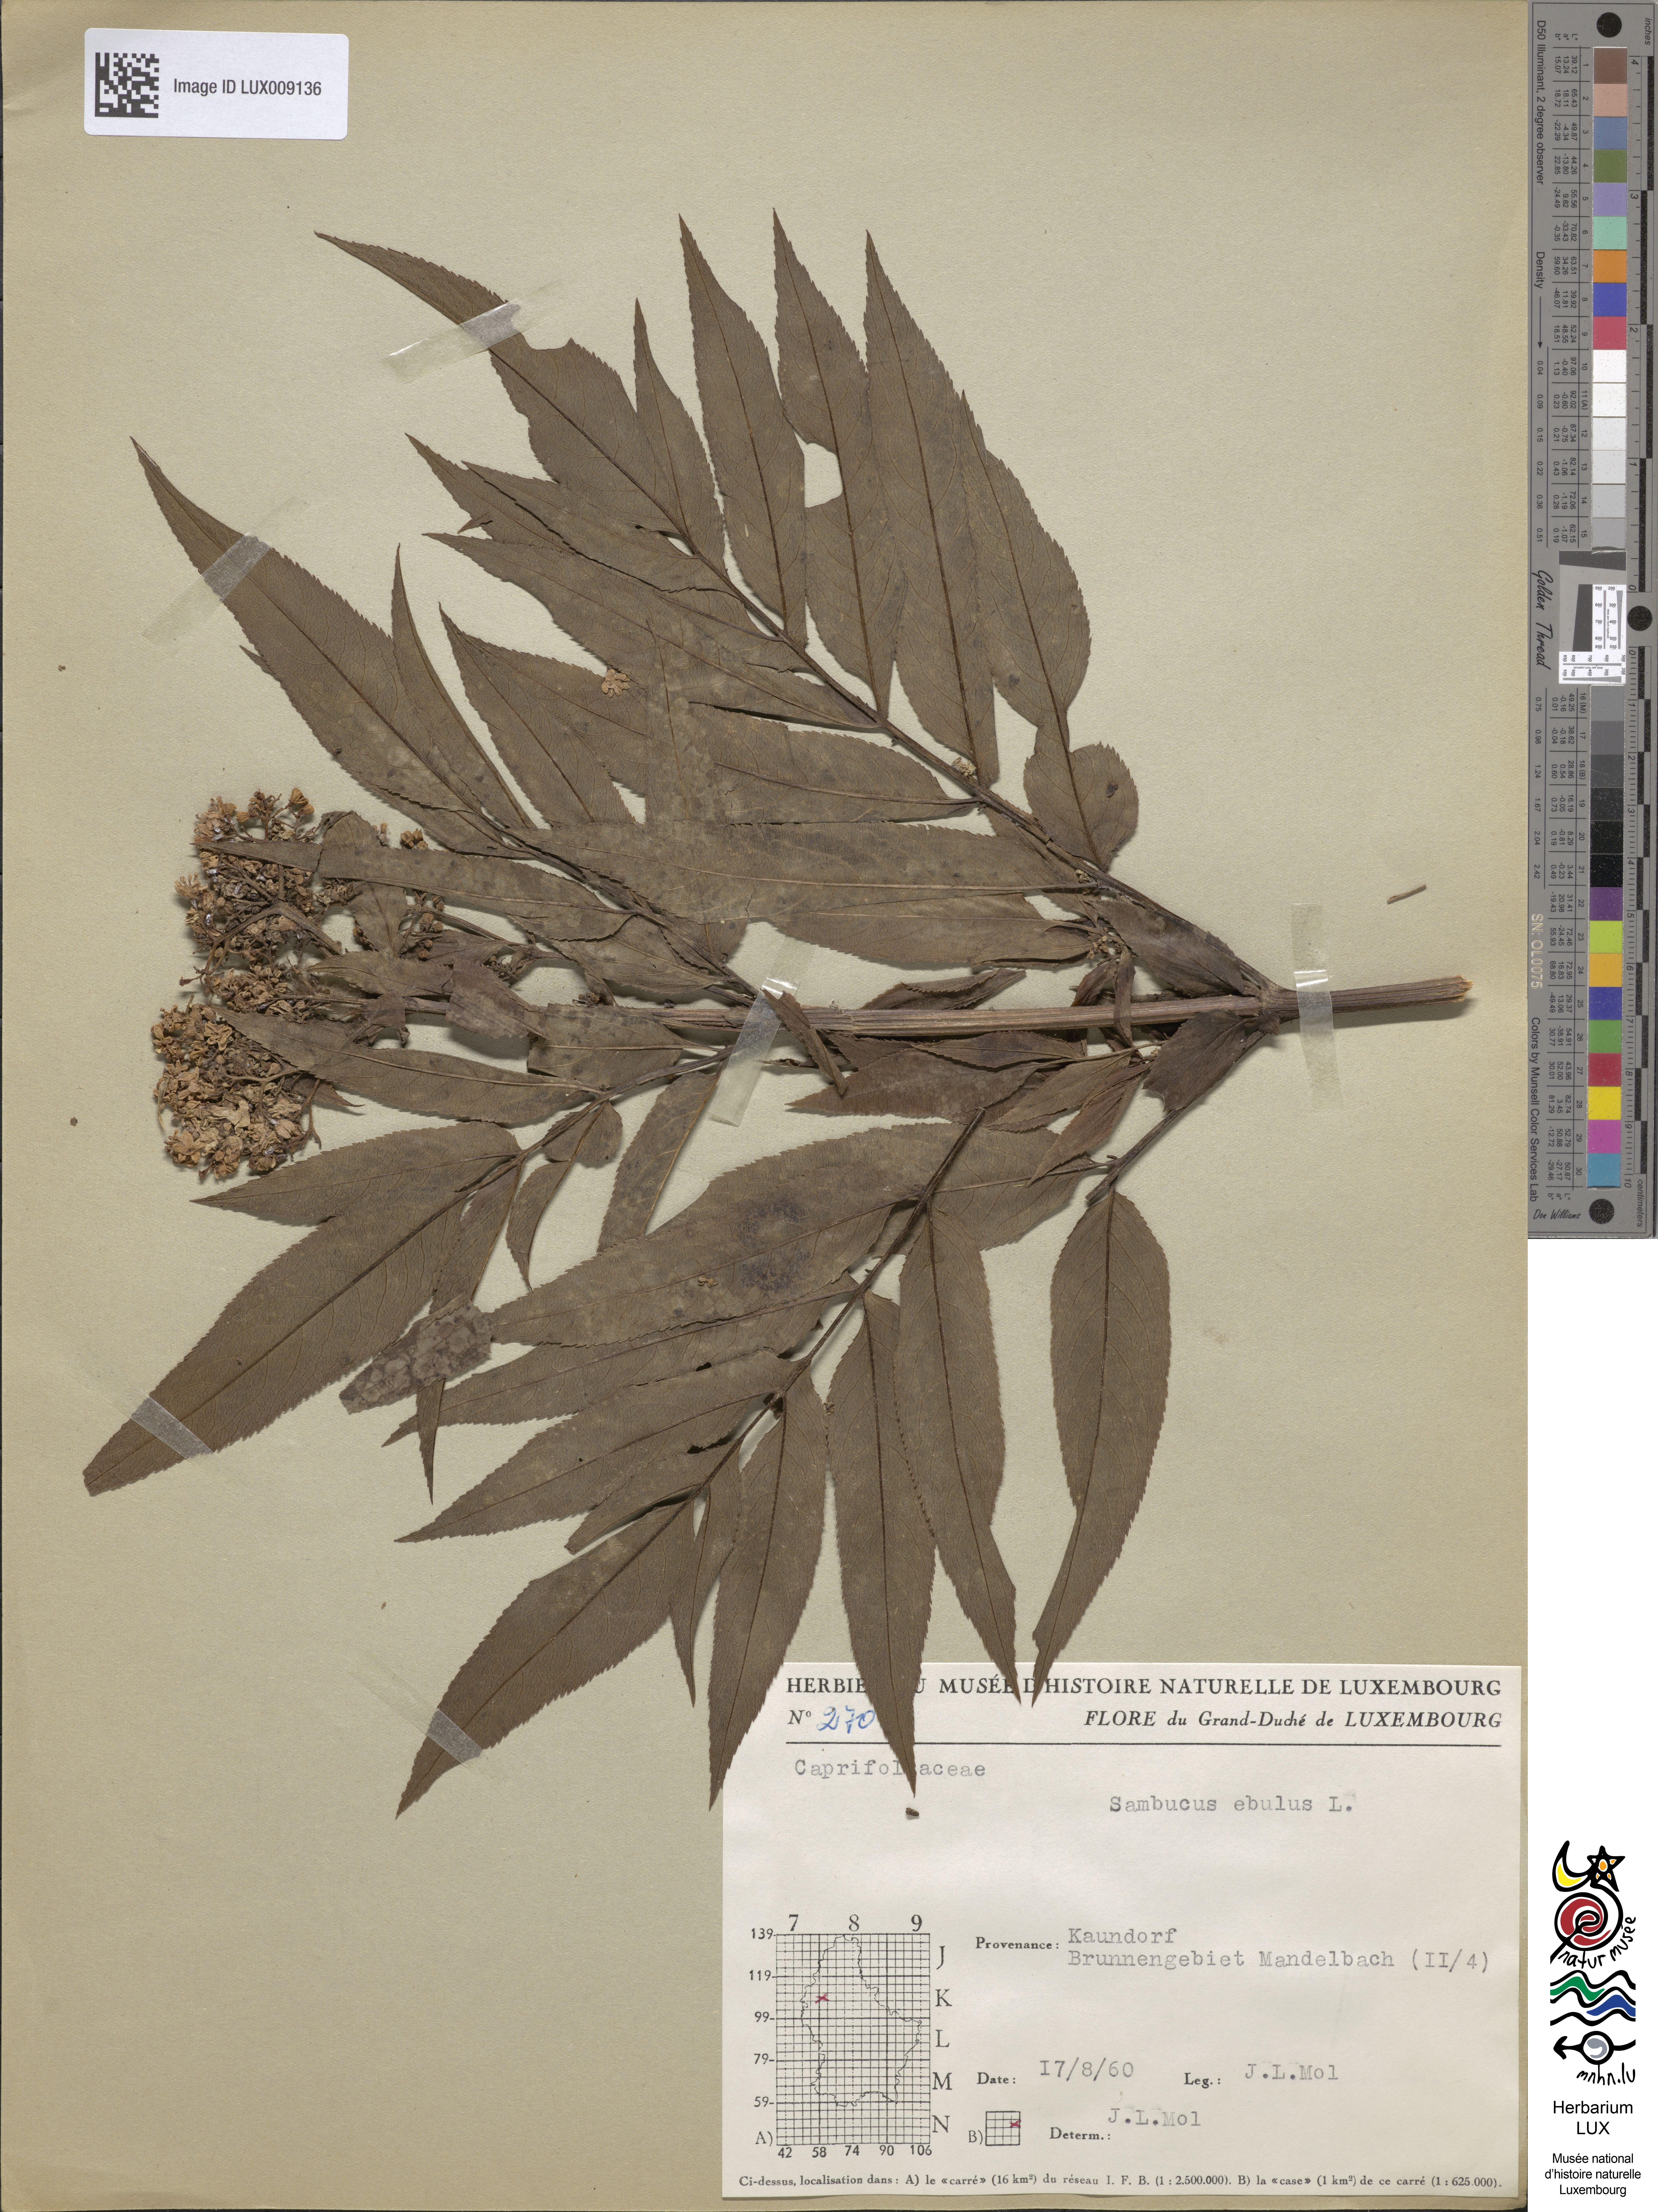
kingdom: Plantae
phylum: Tracheophyta
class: Magnoliopsida
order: Dipsacales
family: Viburnaceae
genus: Sambucus
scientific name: Sambucus ebulus
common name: Dwarf elder
